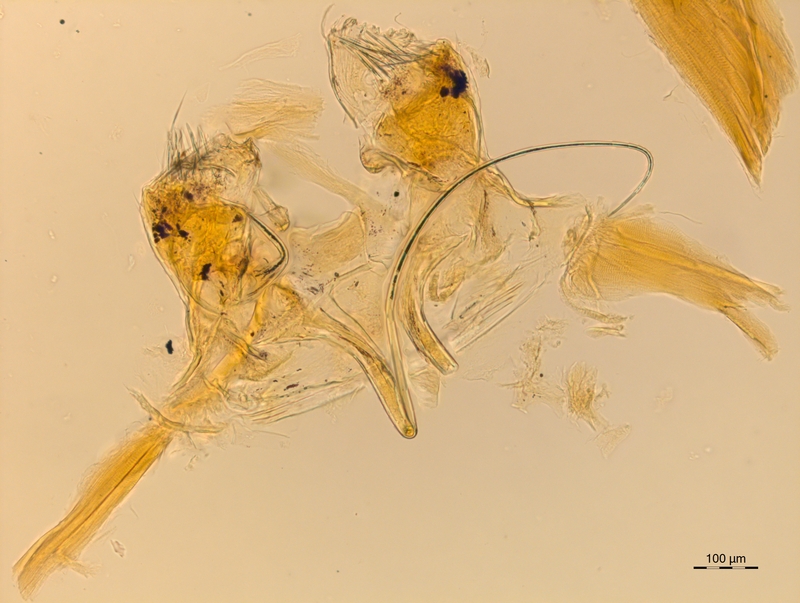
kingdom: Animalia
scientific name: Animalia
